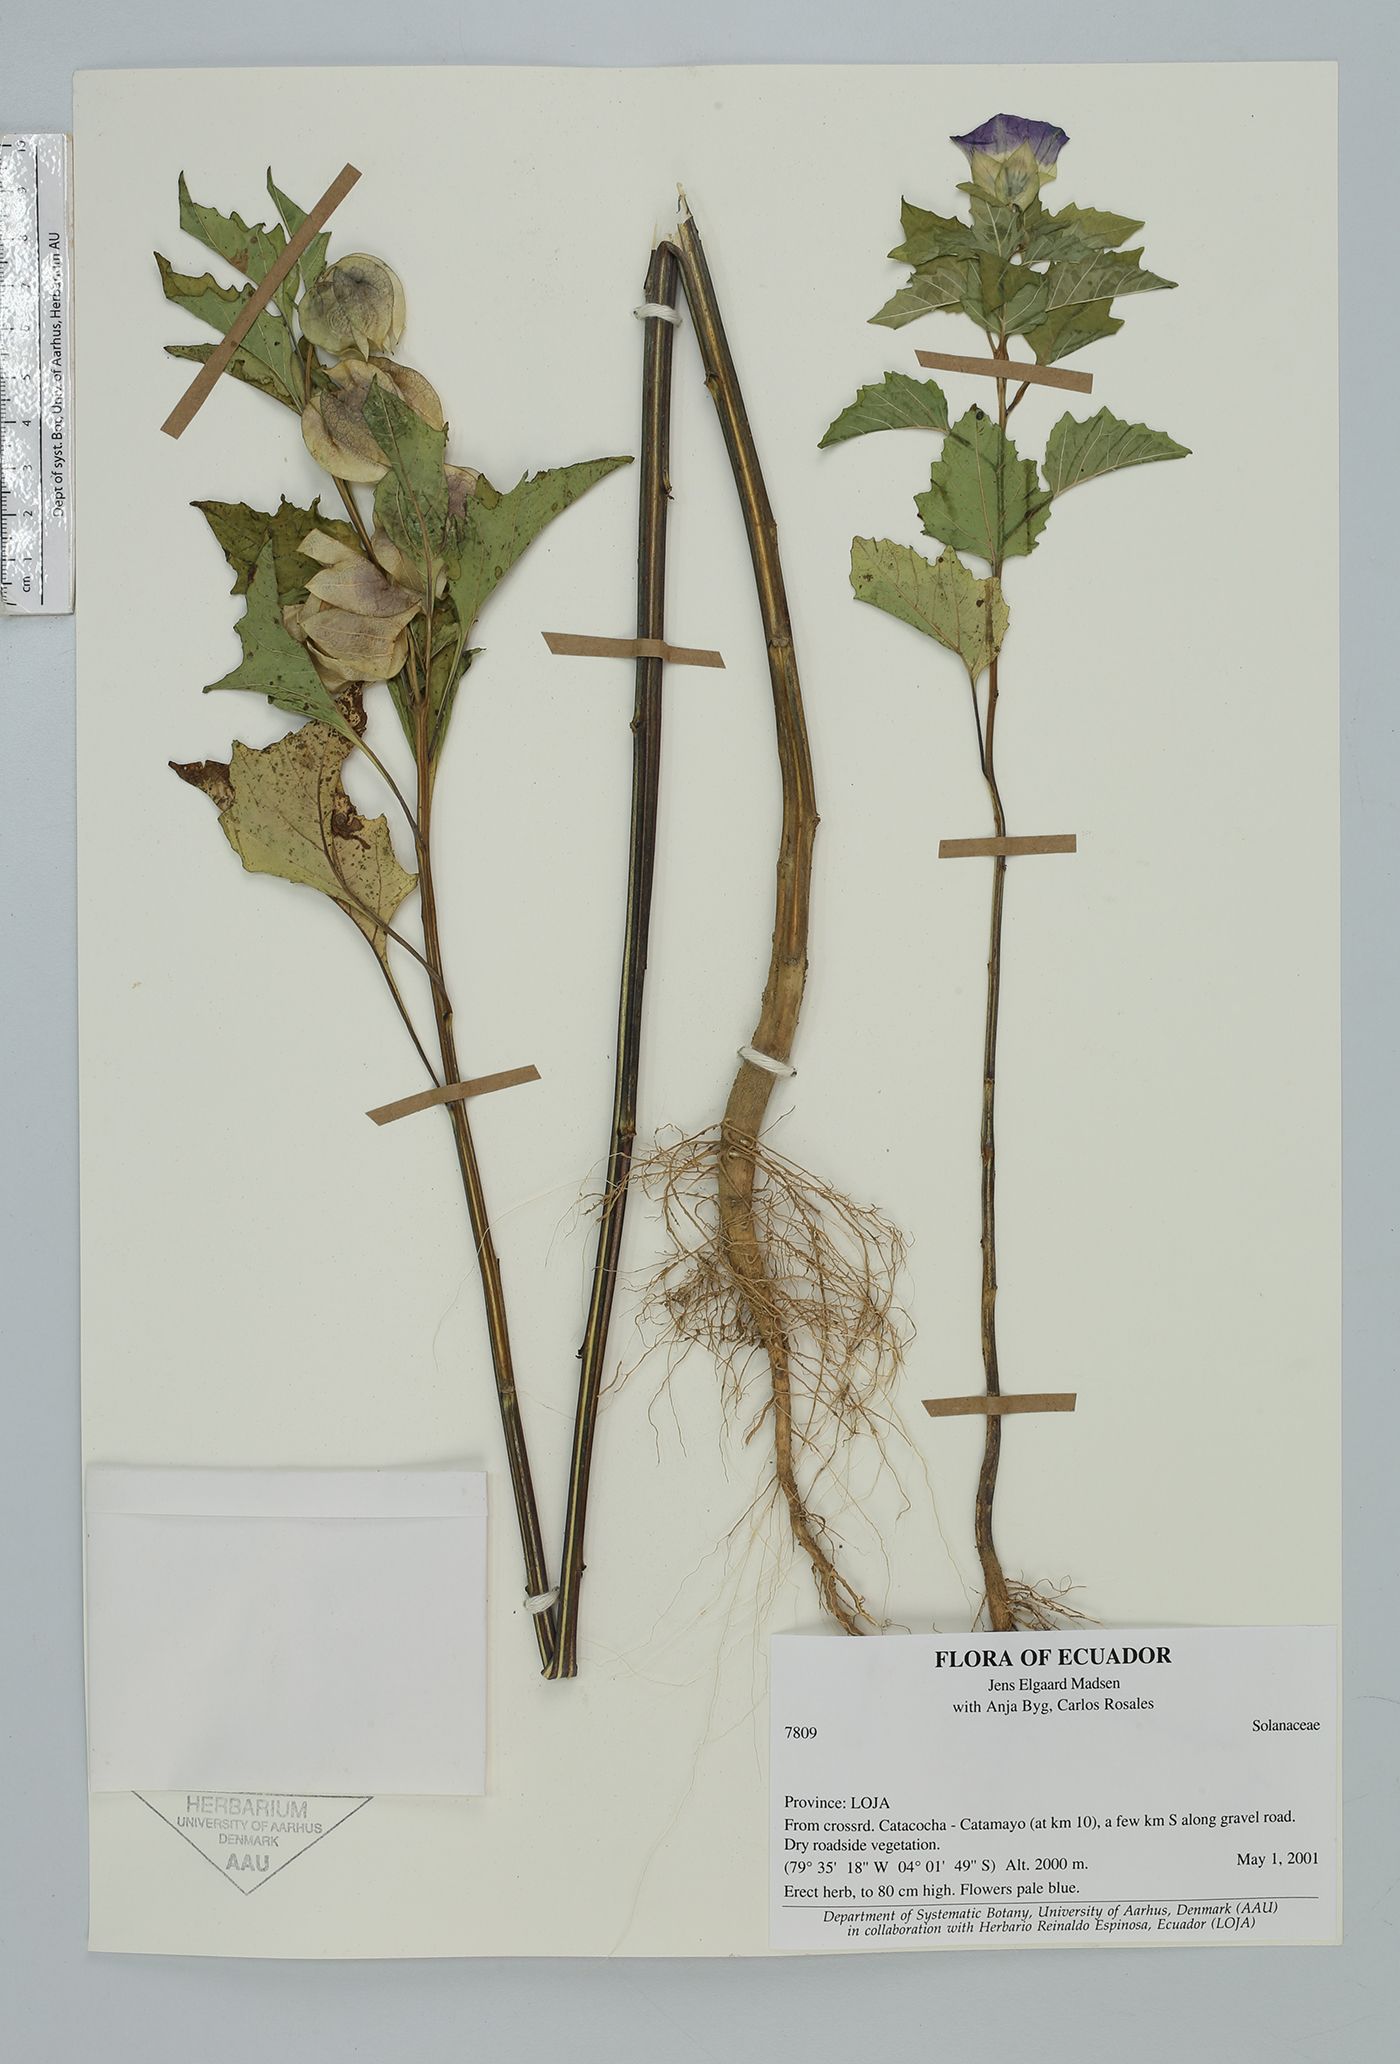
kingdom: Plantae
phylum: Tracheophyta
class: Magnoliopsida
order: Solanales
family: Solanaceae
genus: Nicandra
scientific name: Nicandra physalodes
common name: Apple-of-peru
